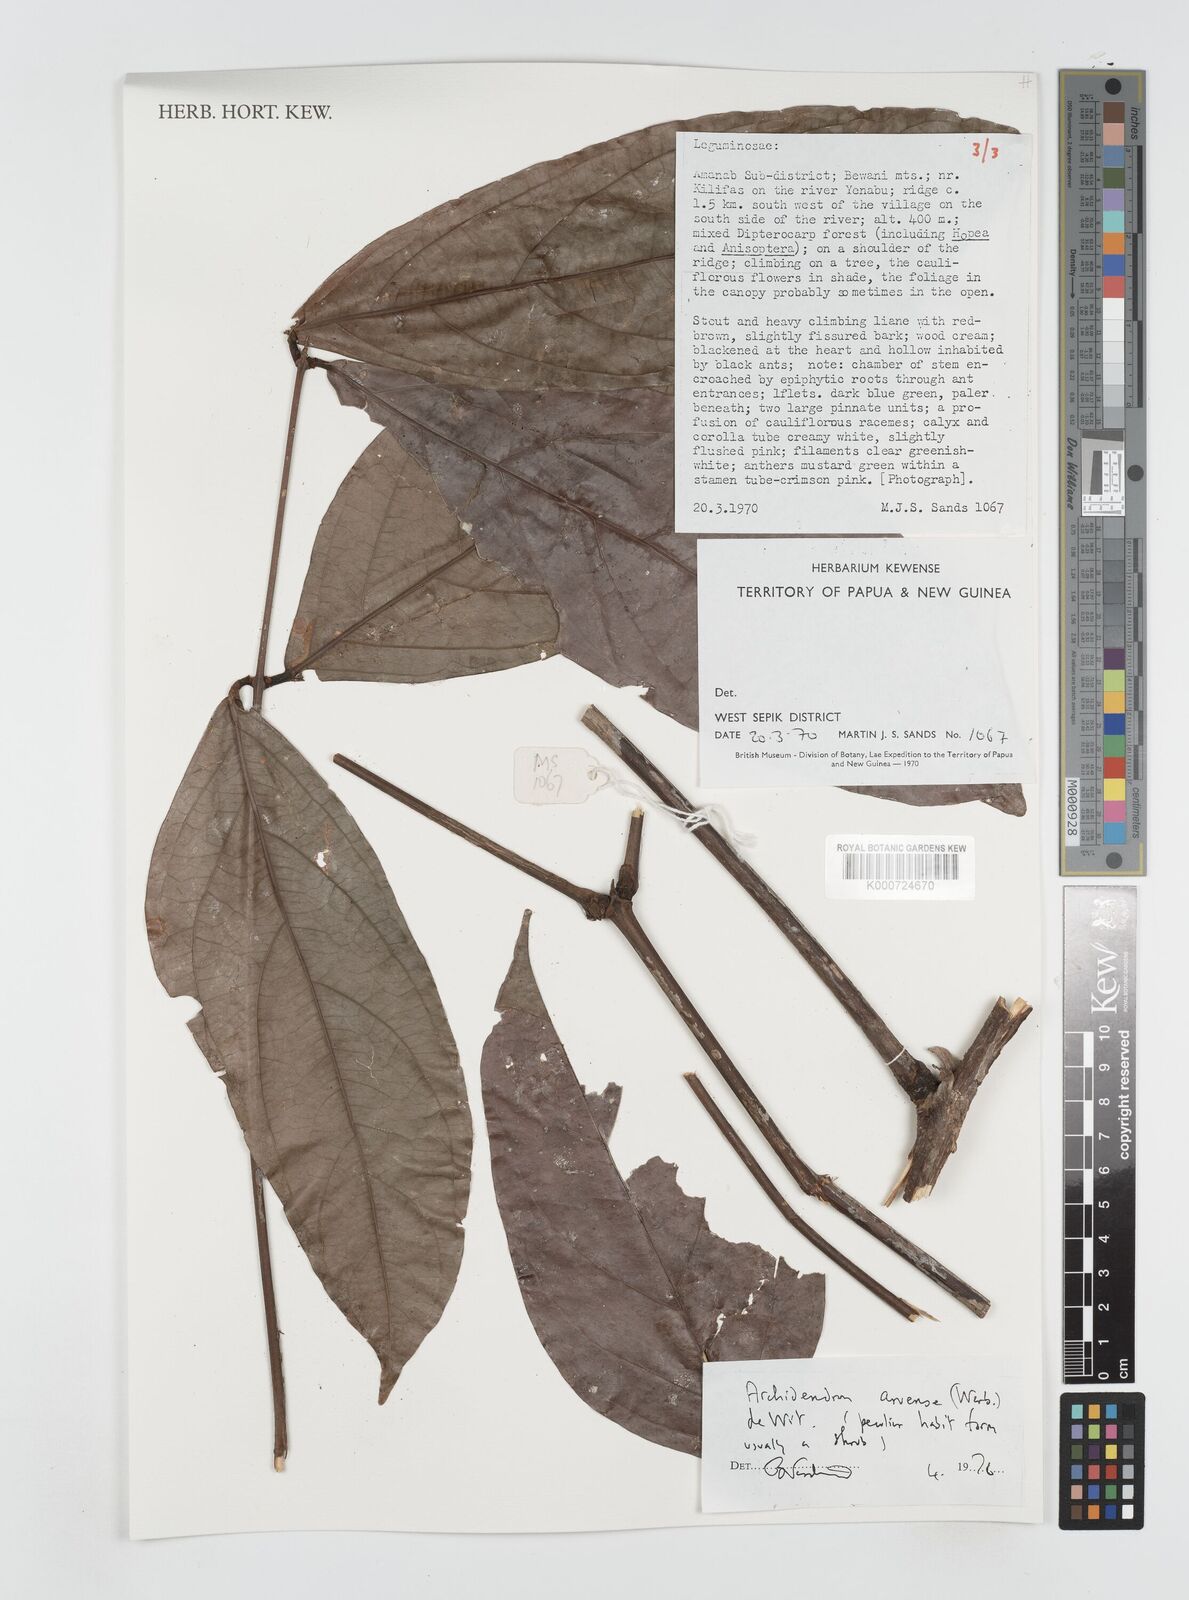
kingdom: Plantae
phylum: Tracheophyta
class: Magnoliopsida
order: Fabales
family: Fabaceae
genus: Archidendron
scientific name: Archidendron aruense
